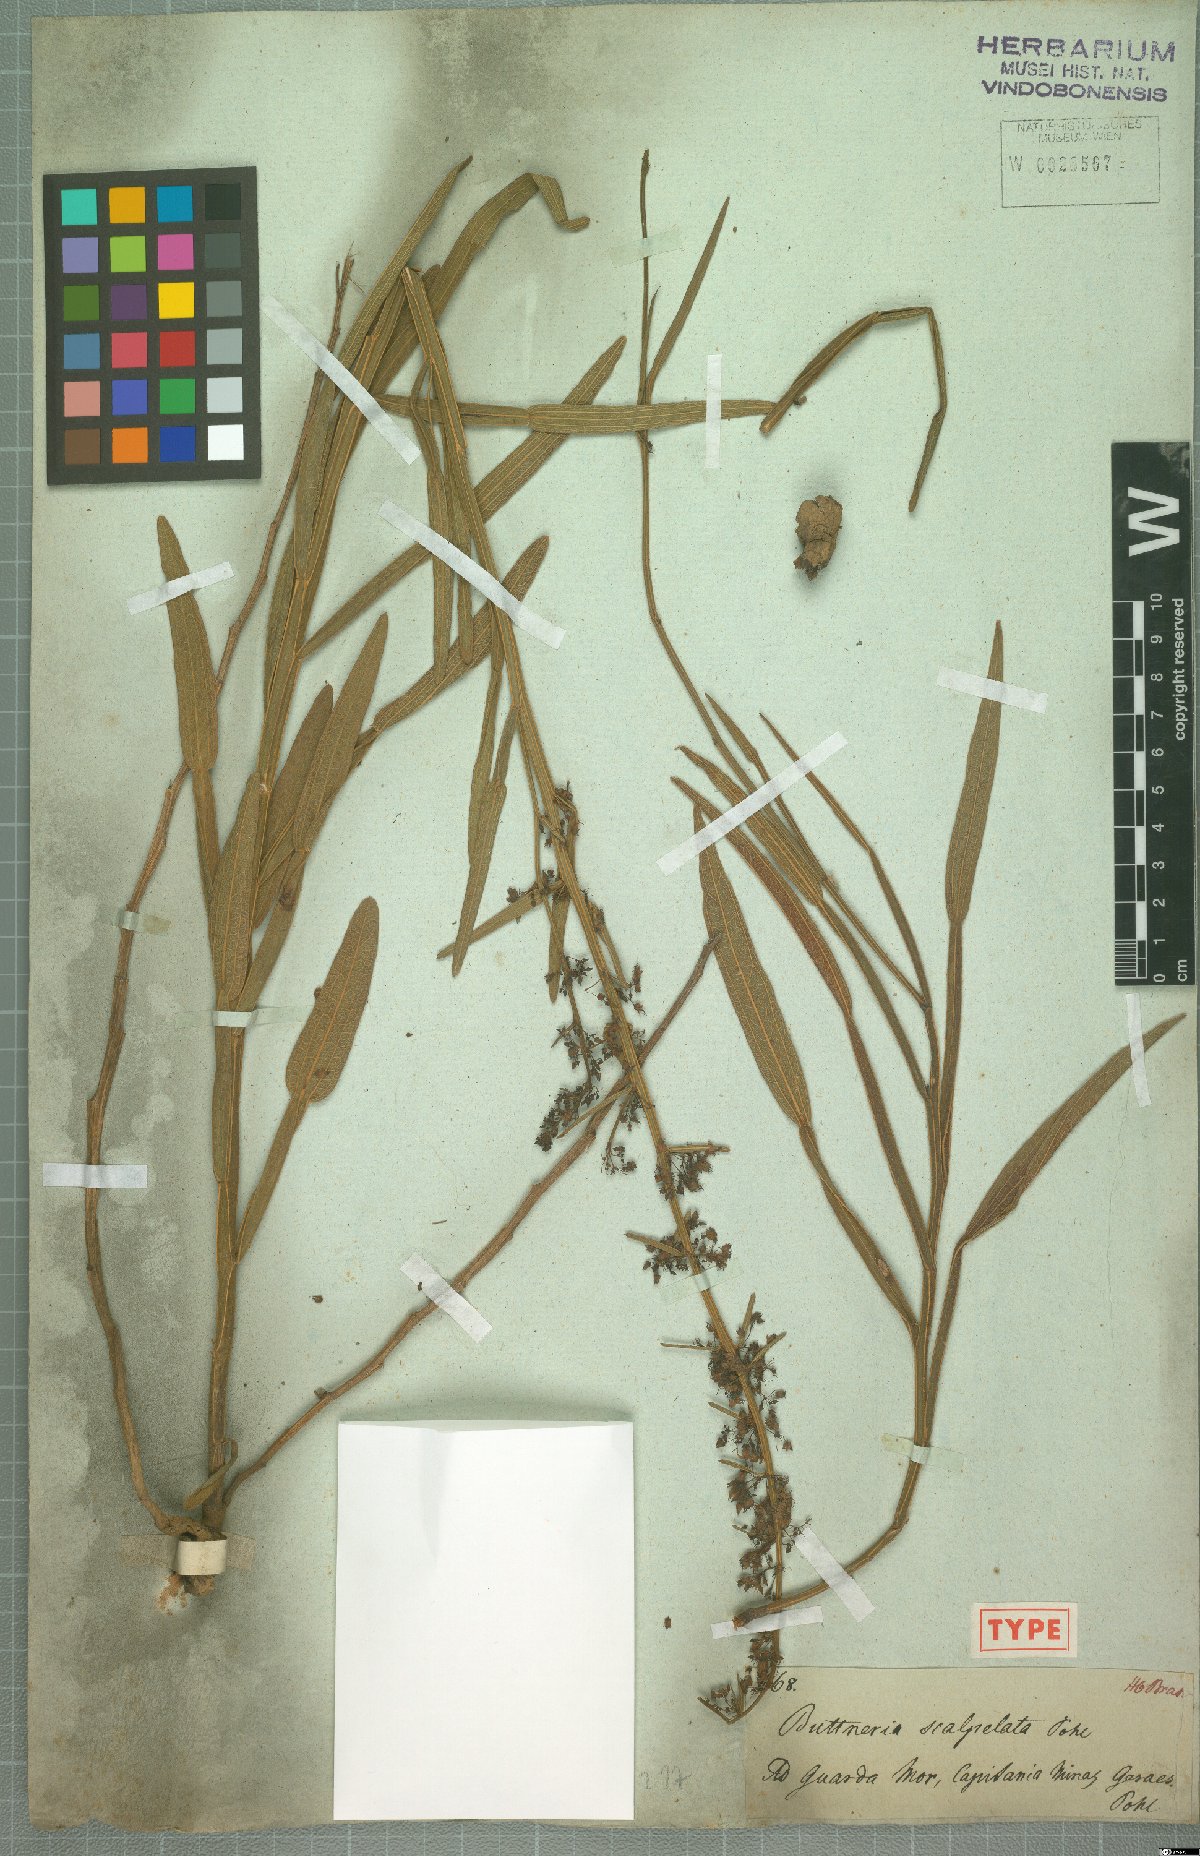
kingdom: Plantae
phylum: Tracheophyta
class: Magnoliopsida
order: Malvales
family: Malvaceae
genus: Byttneria
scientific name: Byttneria scalpellata
